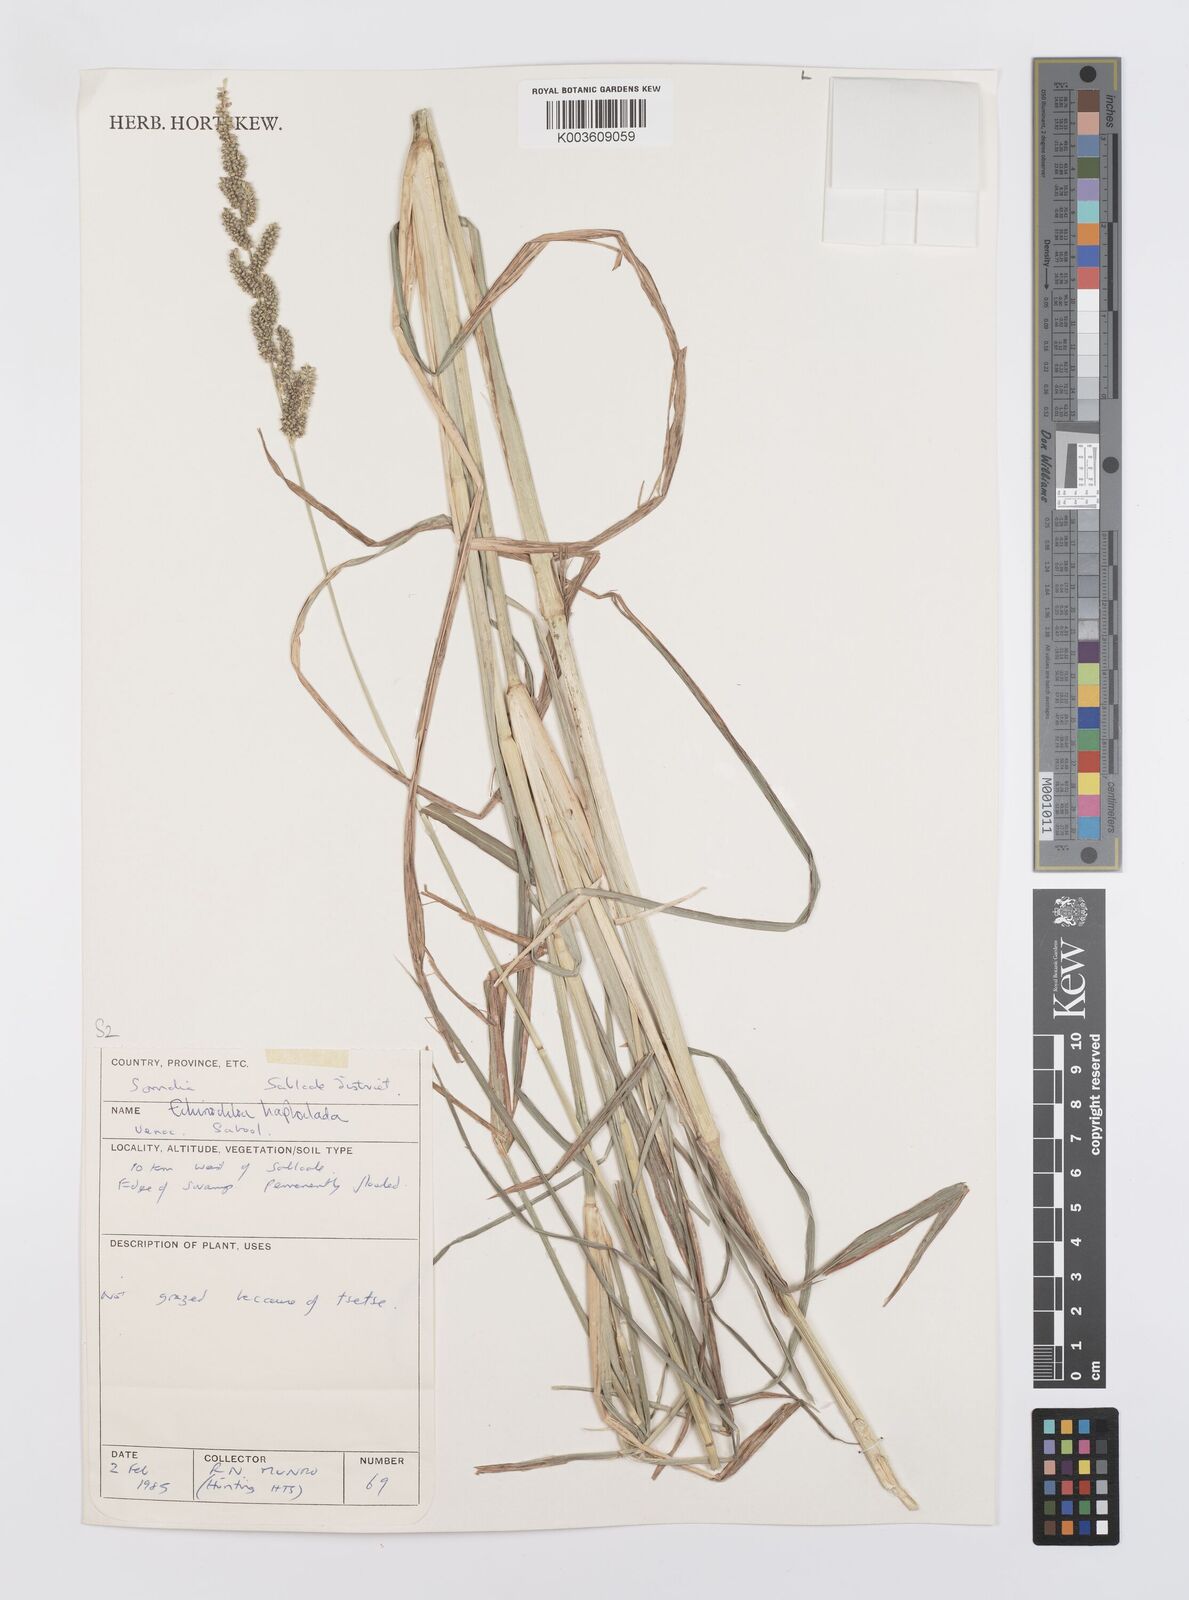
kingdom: Plantae
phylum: Tracheophyta
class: Liliopsida
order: Poales
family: Poaceae
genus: Echinochloa
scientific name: Echinochloa haploclada
